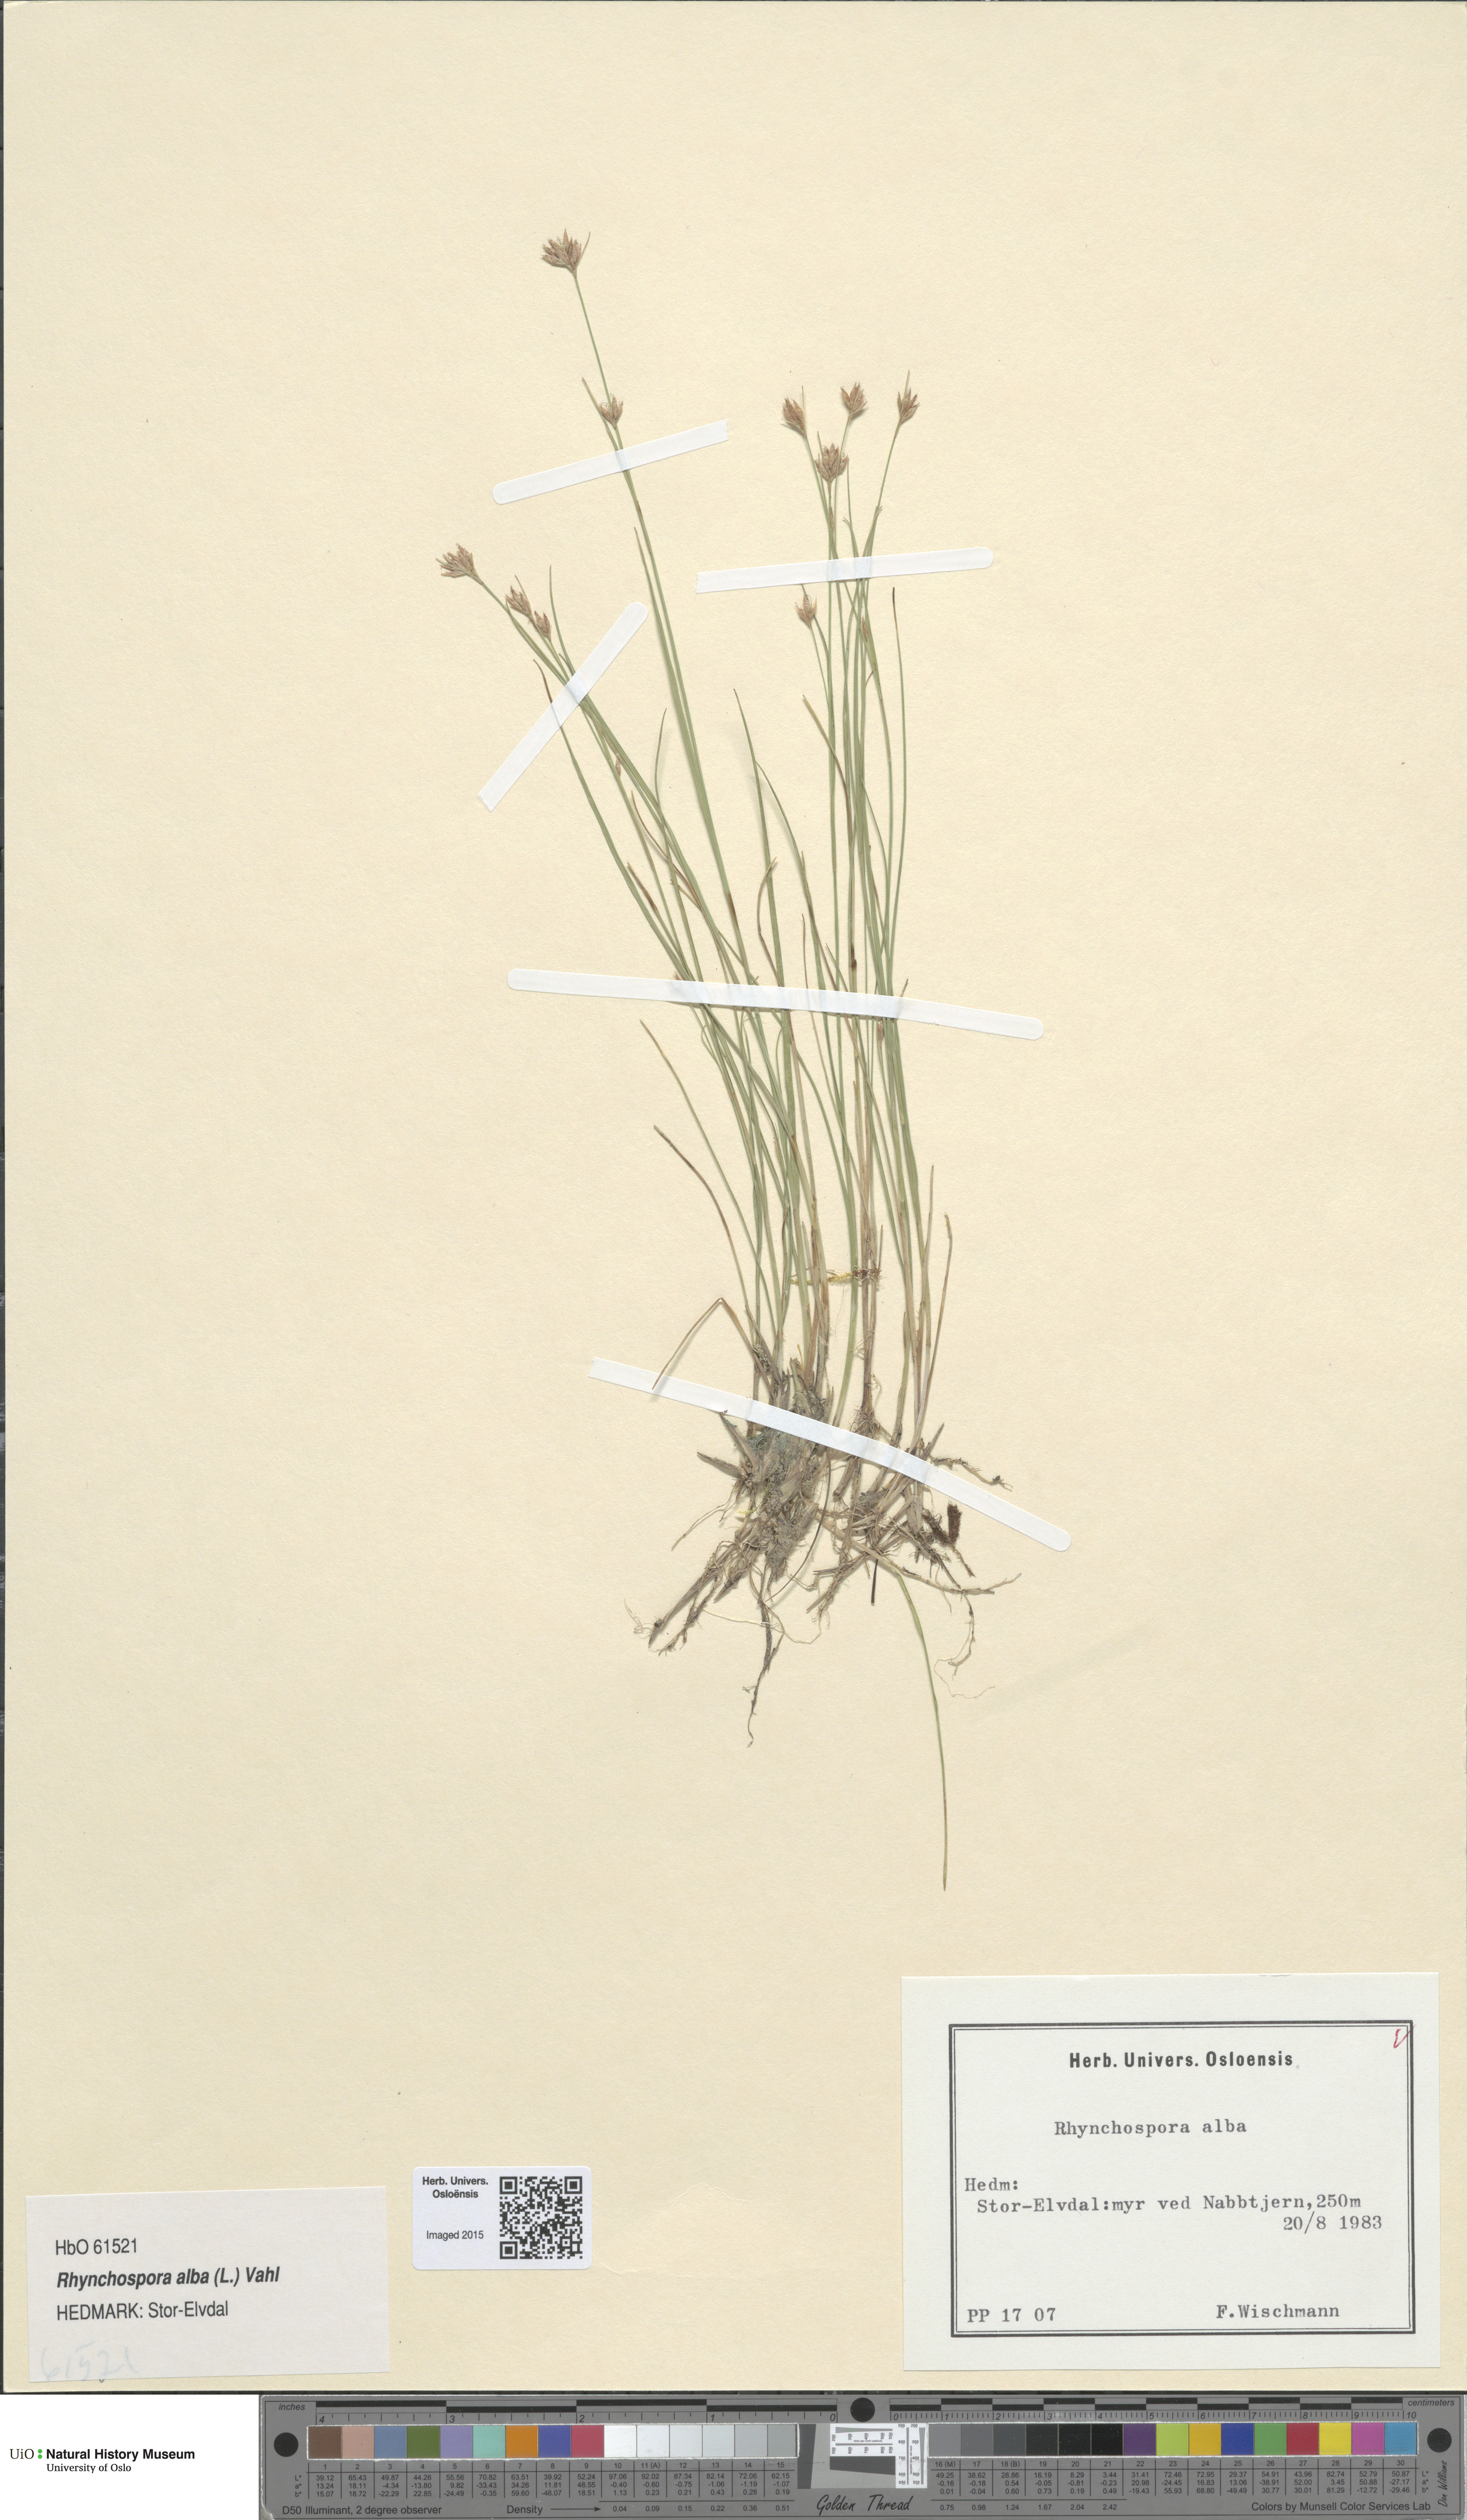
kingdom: Plantae
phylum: Tracheophyta
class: Liliopsida
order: Poales
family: Cyperaceae
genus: Rhynchospora
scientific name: Rhynchospora alba
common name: White beak-sedge
